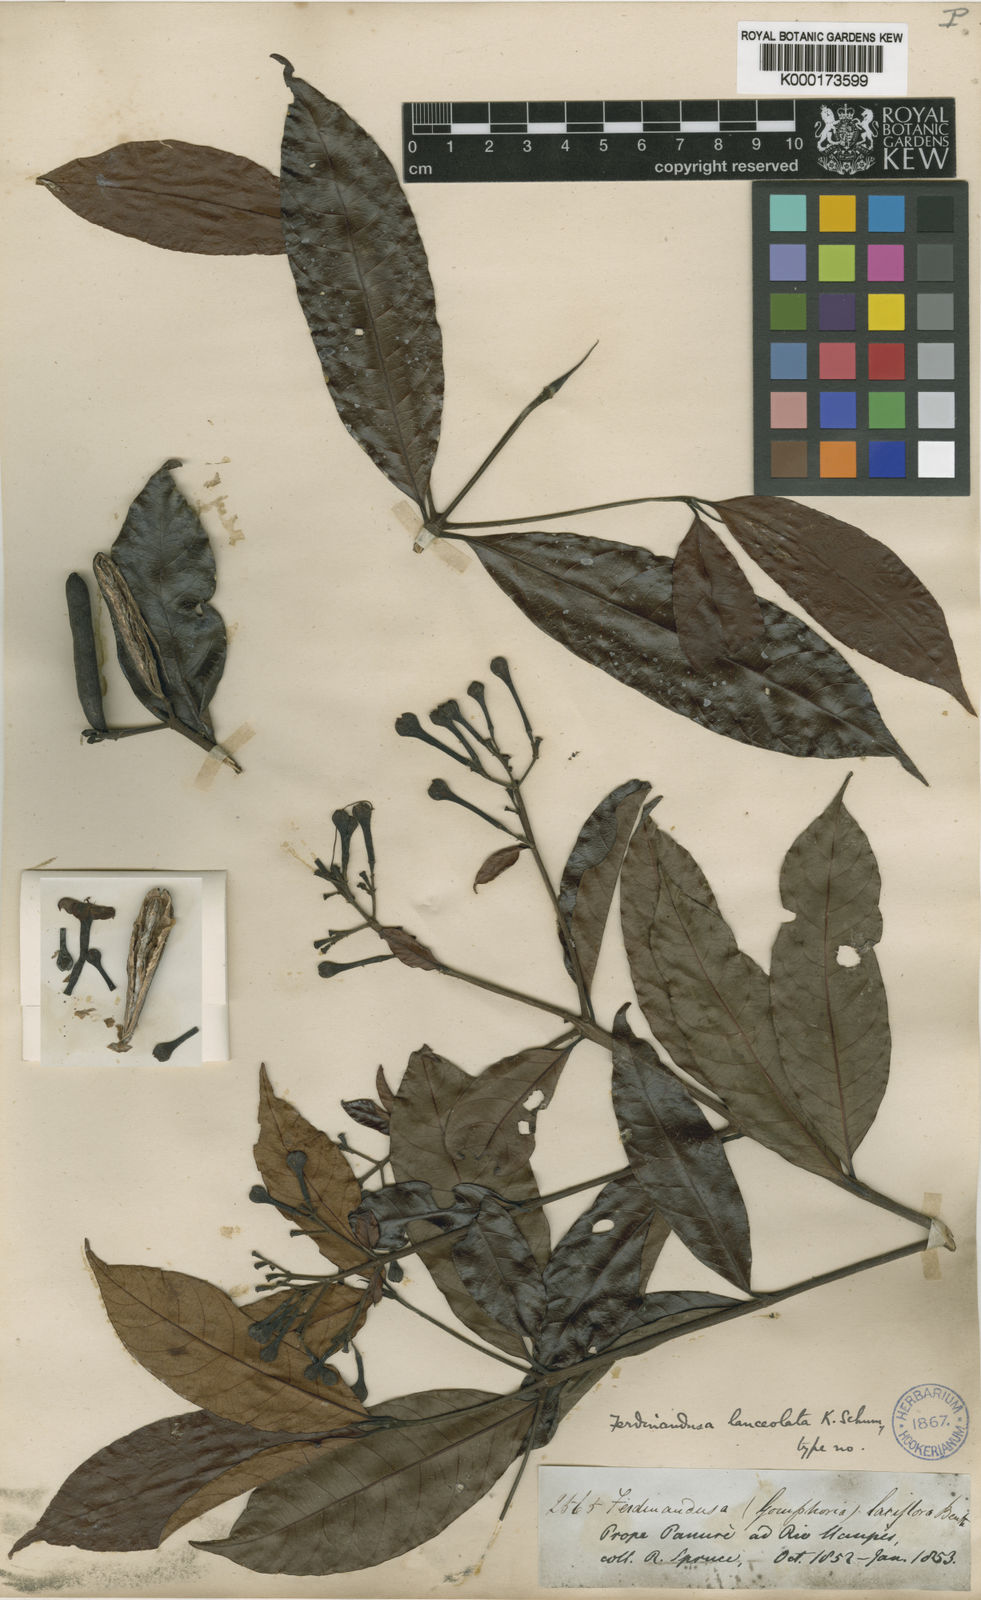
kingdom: Plantae
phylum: Tracheophyta
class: Magnoliopsida
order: Gentianales
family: Rubiaceae
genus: Ferdinandusa
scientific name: Ferdinandusa lanceolata
